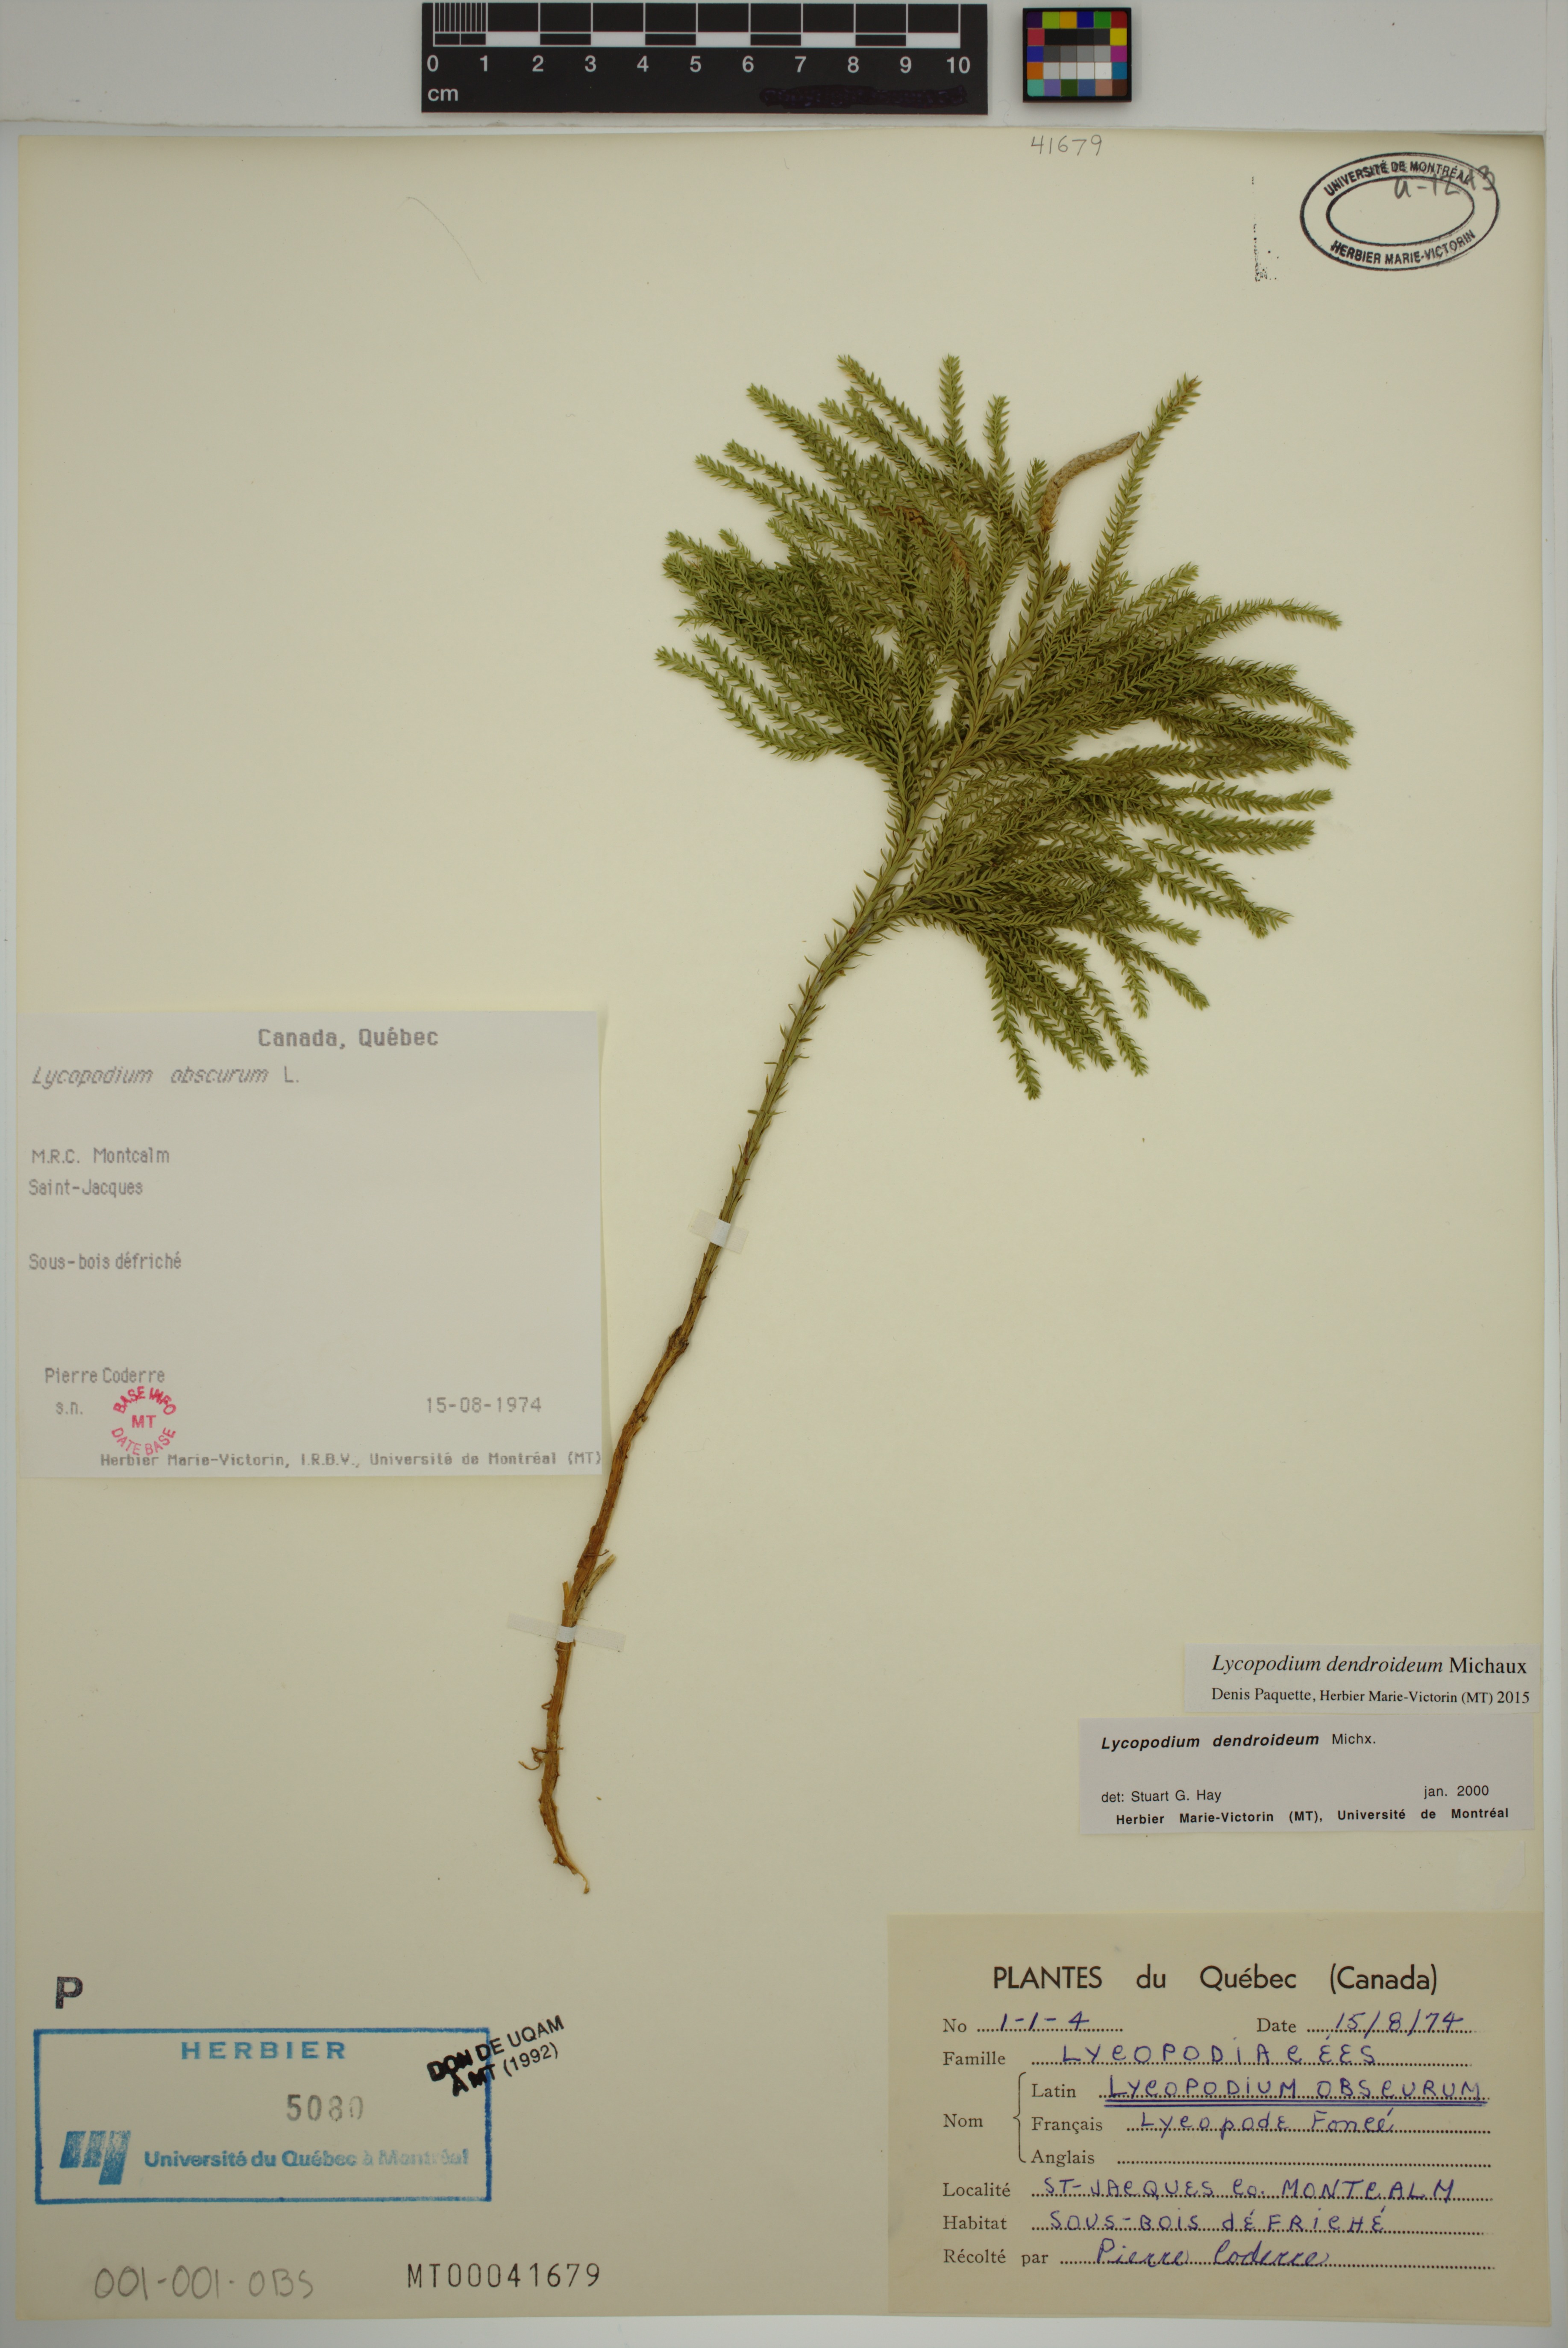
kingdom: Plantae
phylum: Tracheophyta
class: Lycopodiopsida
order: Lycopodiales
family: Lycopodiaceae
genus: Dendrolycopodium
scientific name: Dendrolycopodium dendroideum
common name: Northern tree-clubmoss
